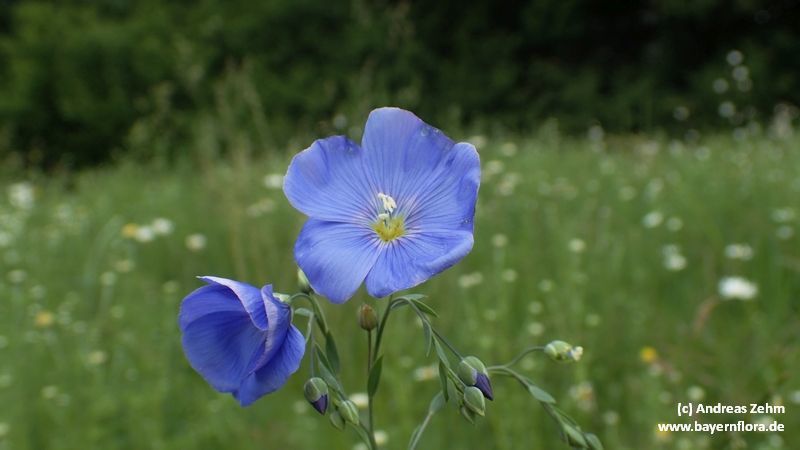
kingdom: Plantae
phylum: Tracheophyta
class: Magnoliopsida
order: Malpighiales
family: Linaceae
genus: Linum
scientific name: Linum usitatissimum
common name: Flax
